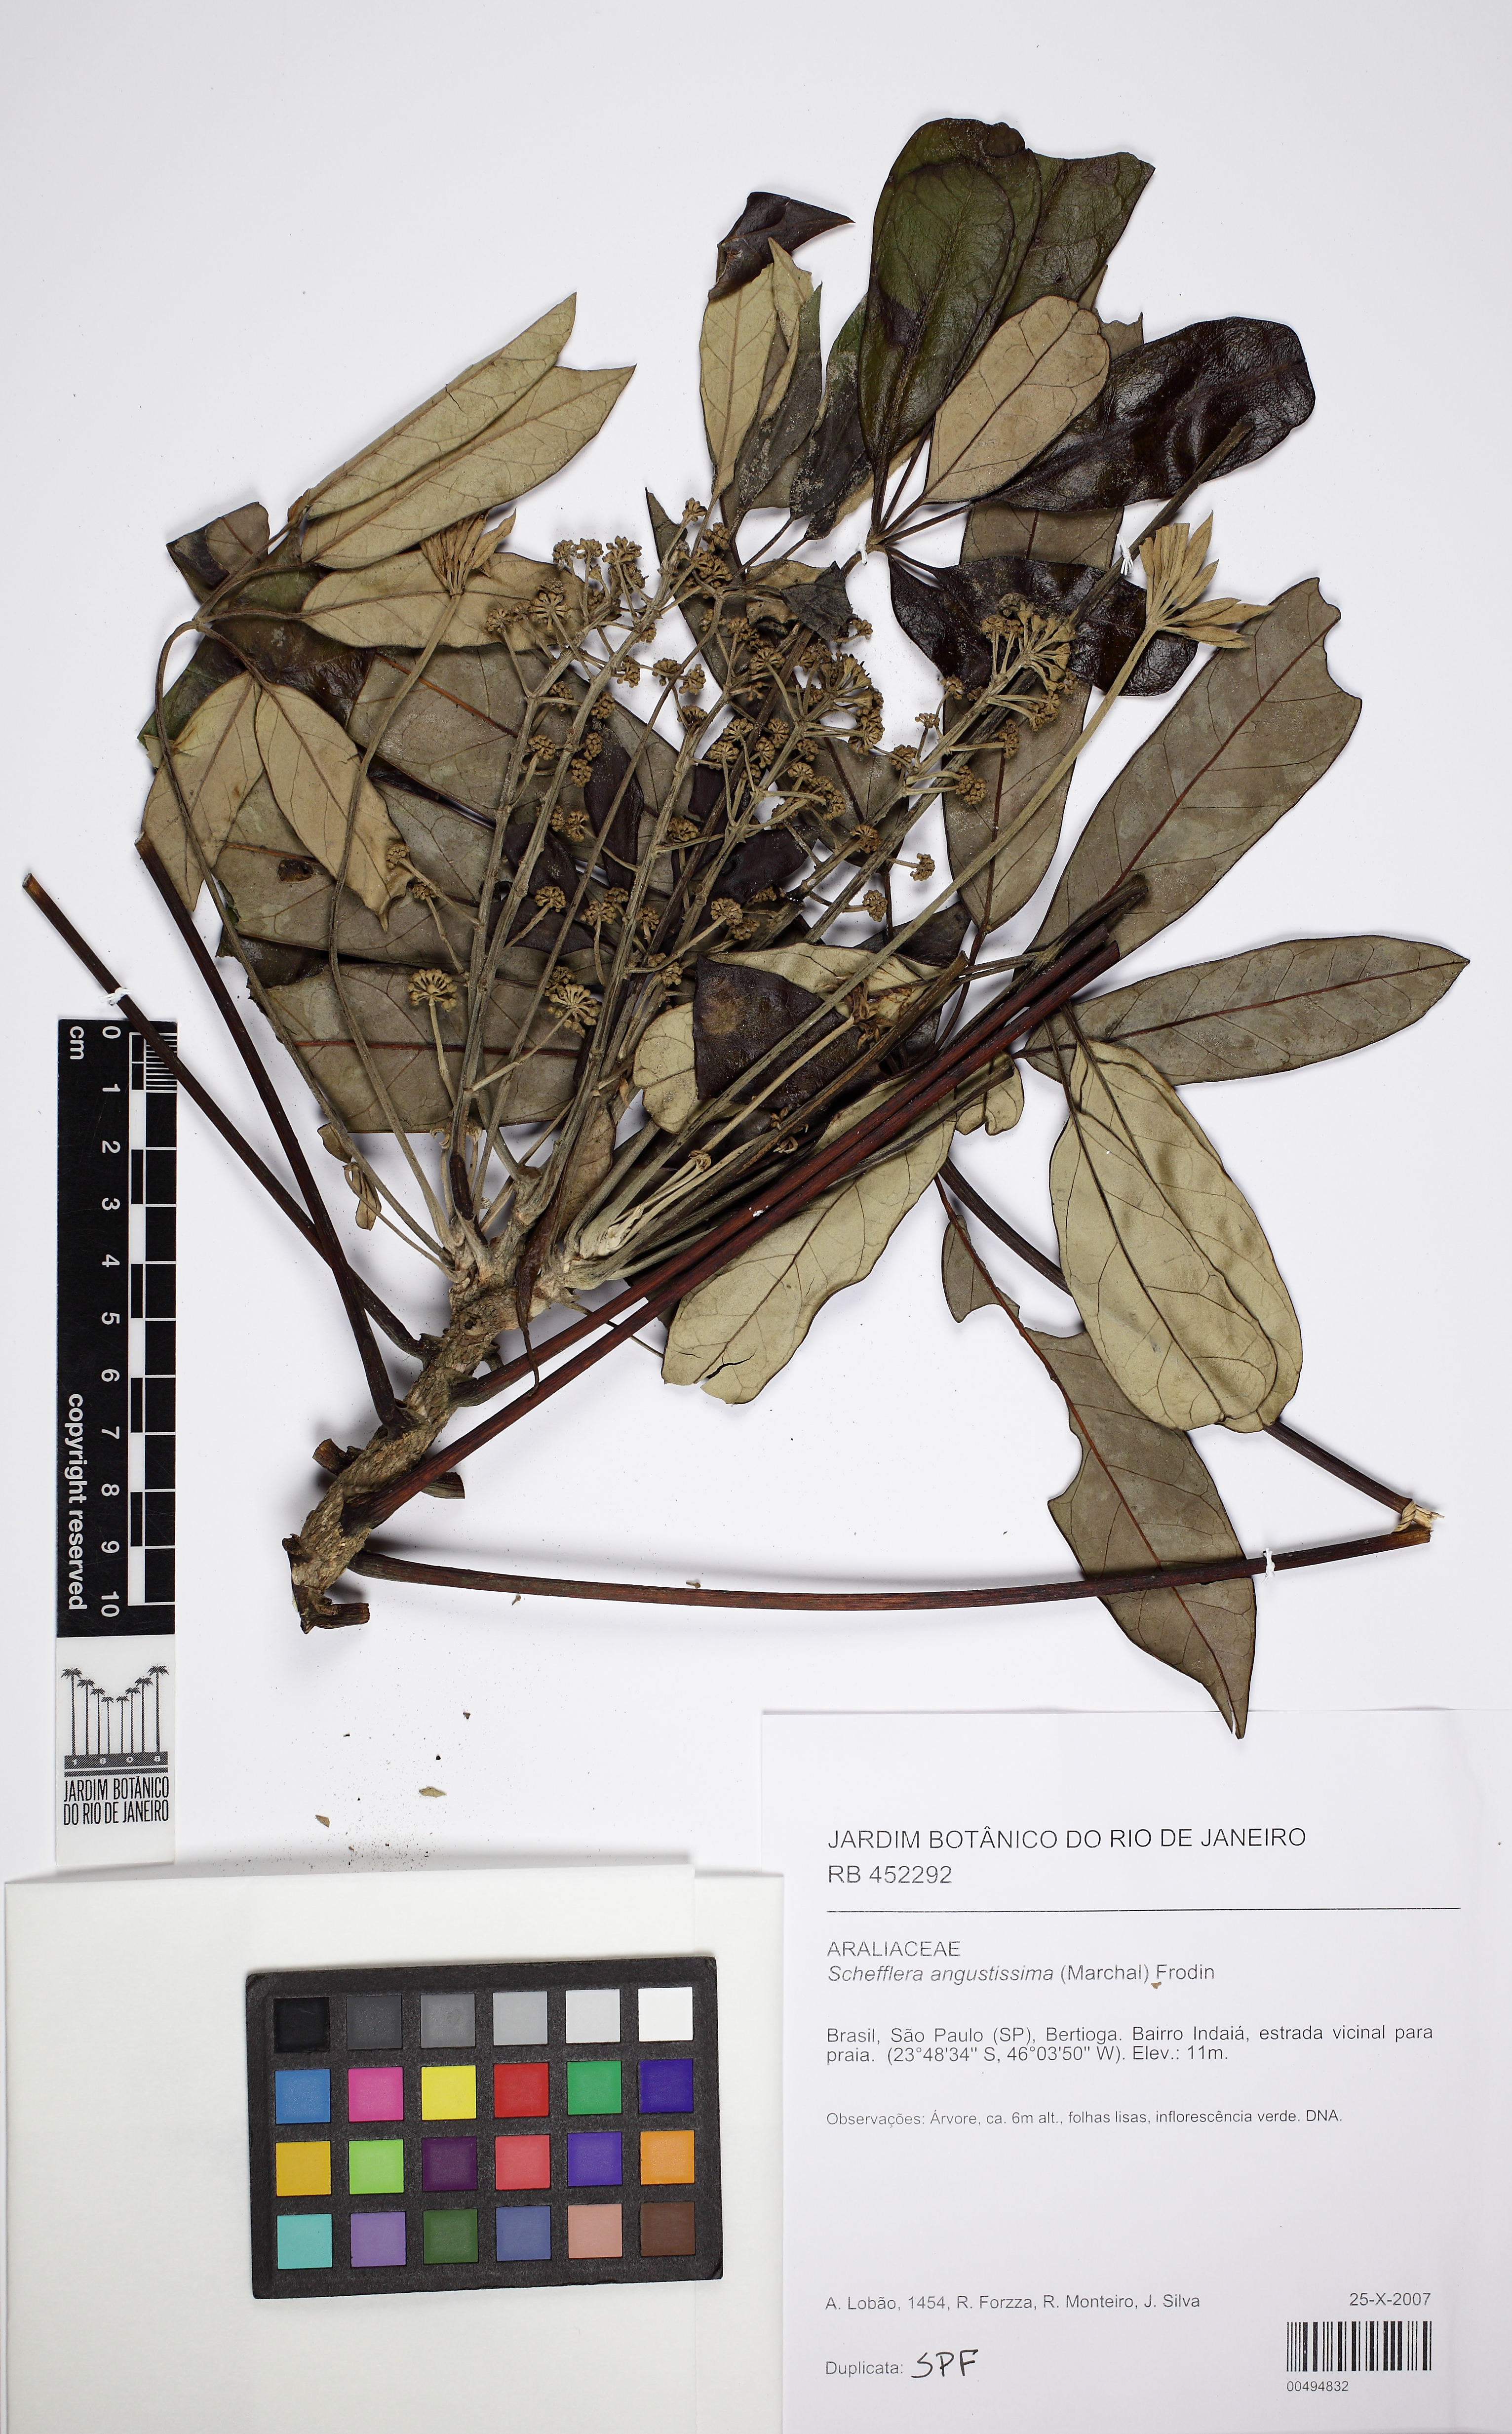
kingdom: Plantae
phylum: Tracheophyta
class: Magnoliopsida
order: Apiales
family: Araliaceae
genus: Didymopanax
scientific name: Didymopanax angustissimus
